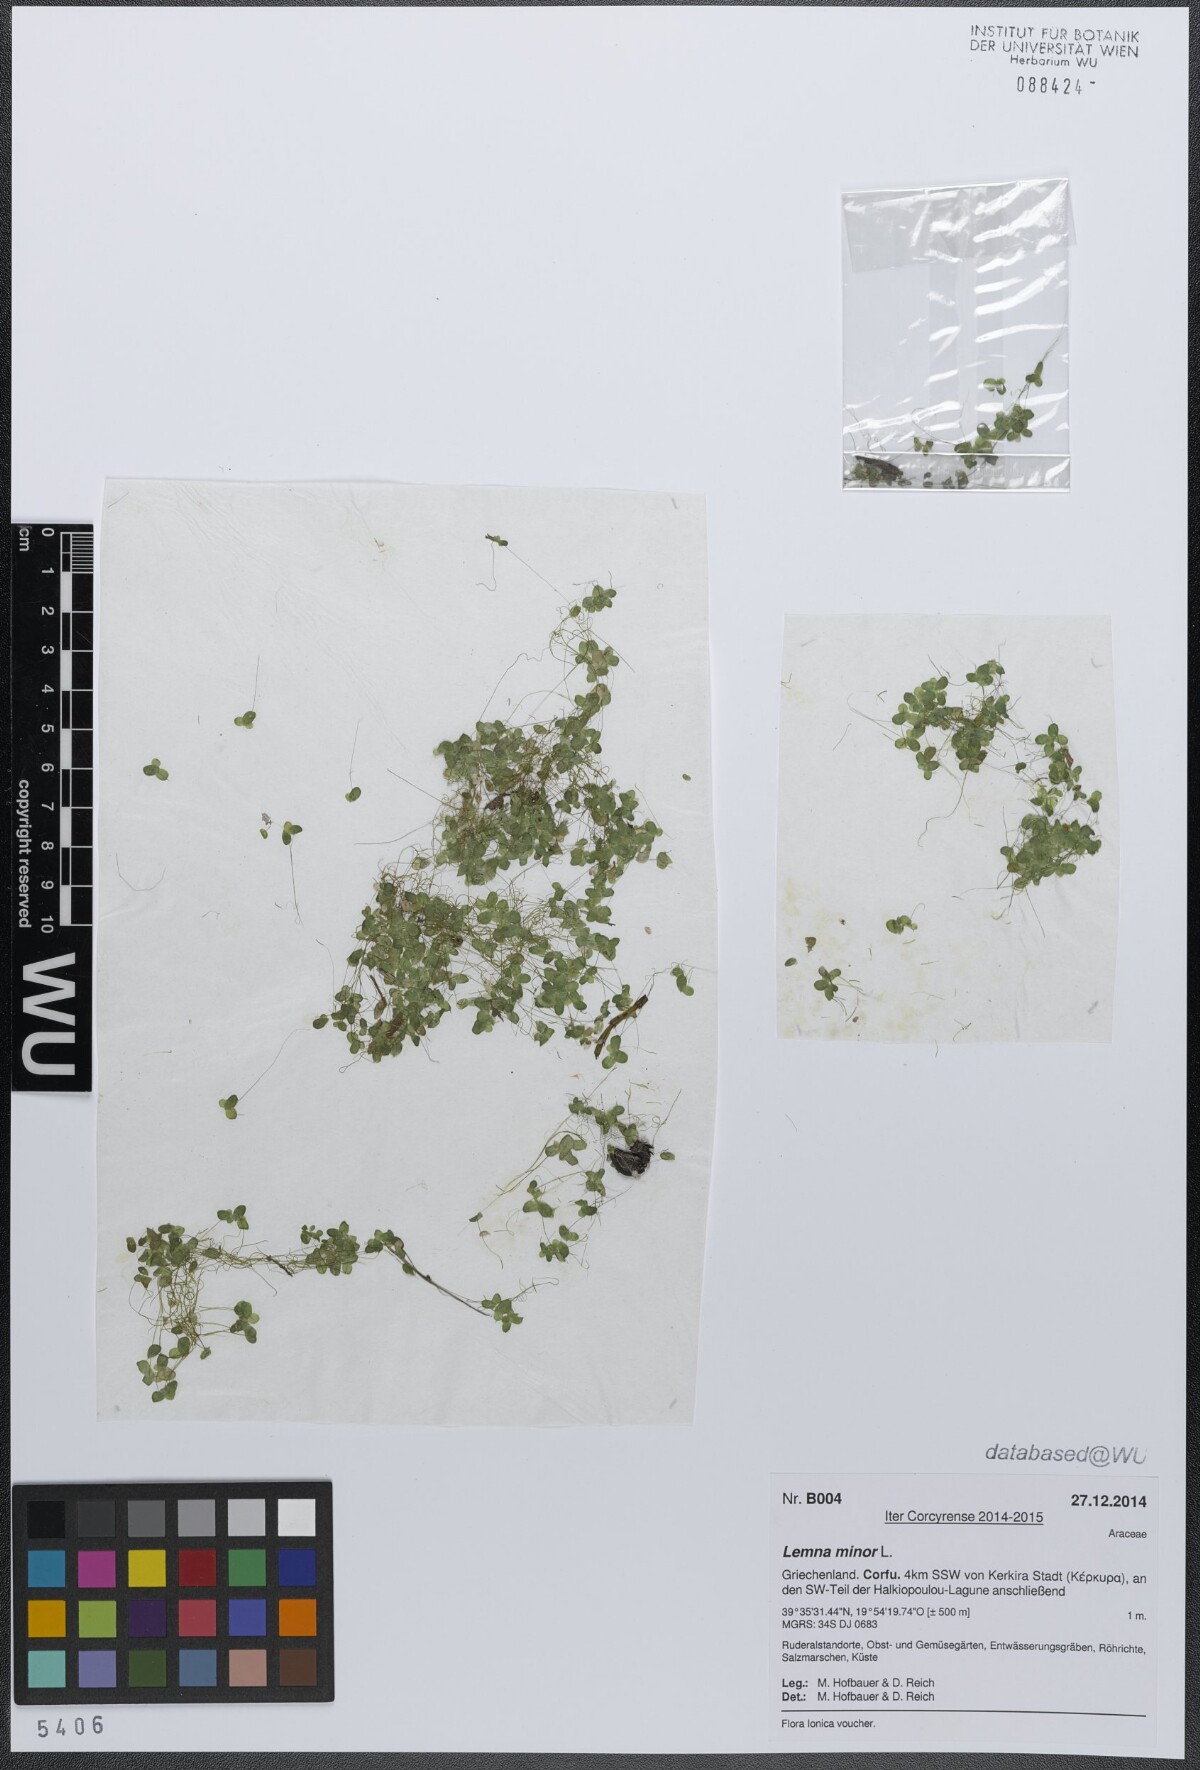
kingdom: Plantae
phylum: Tracheophyta
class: Liliopsida
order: Alismatales
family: Araceae
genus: Lemna
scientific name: Lemna minor
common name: Common duckweed
